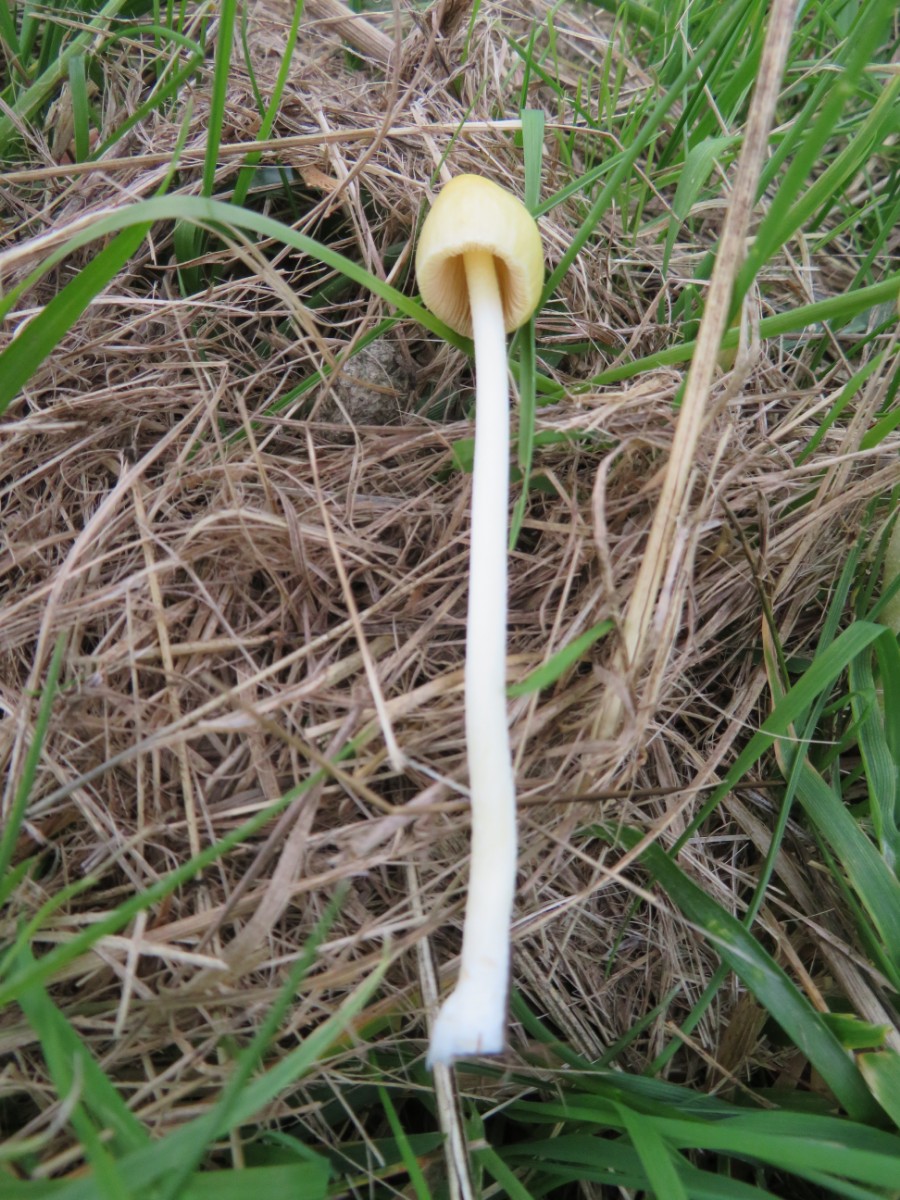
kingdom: Fungi
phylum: Basidiomycota
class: Agaricomycetes
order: Agaricales
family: Bolbitiaceae
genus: Bolbitius
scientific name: Bolbitius titubans
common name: almindelig gulhat
